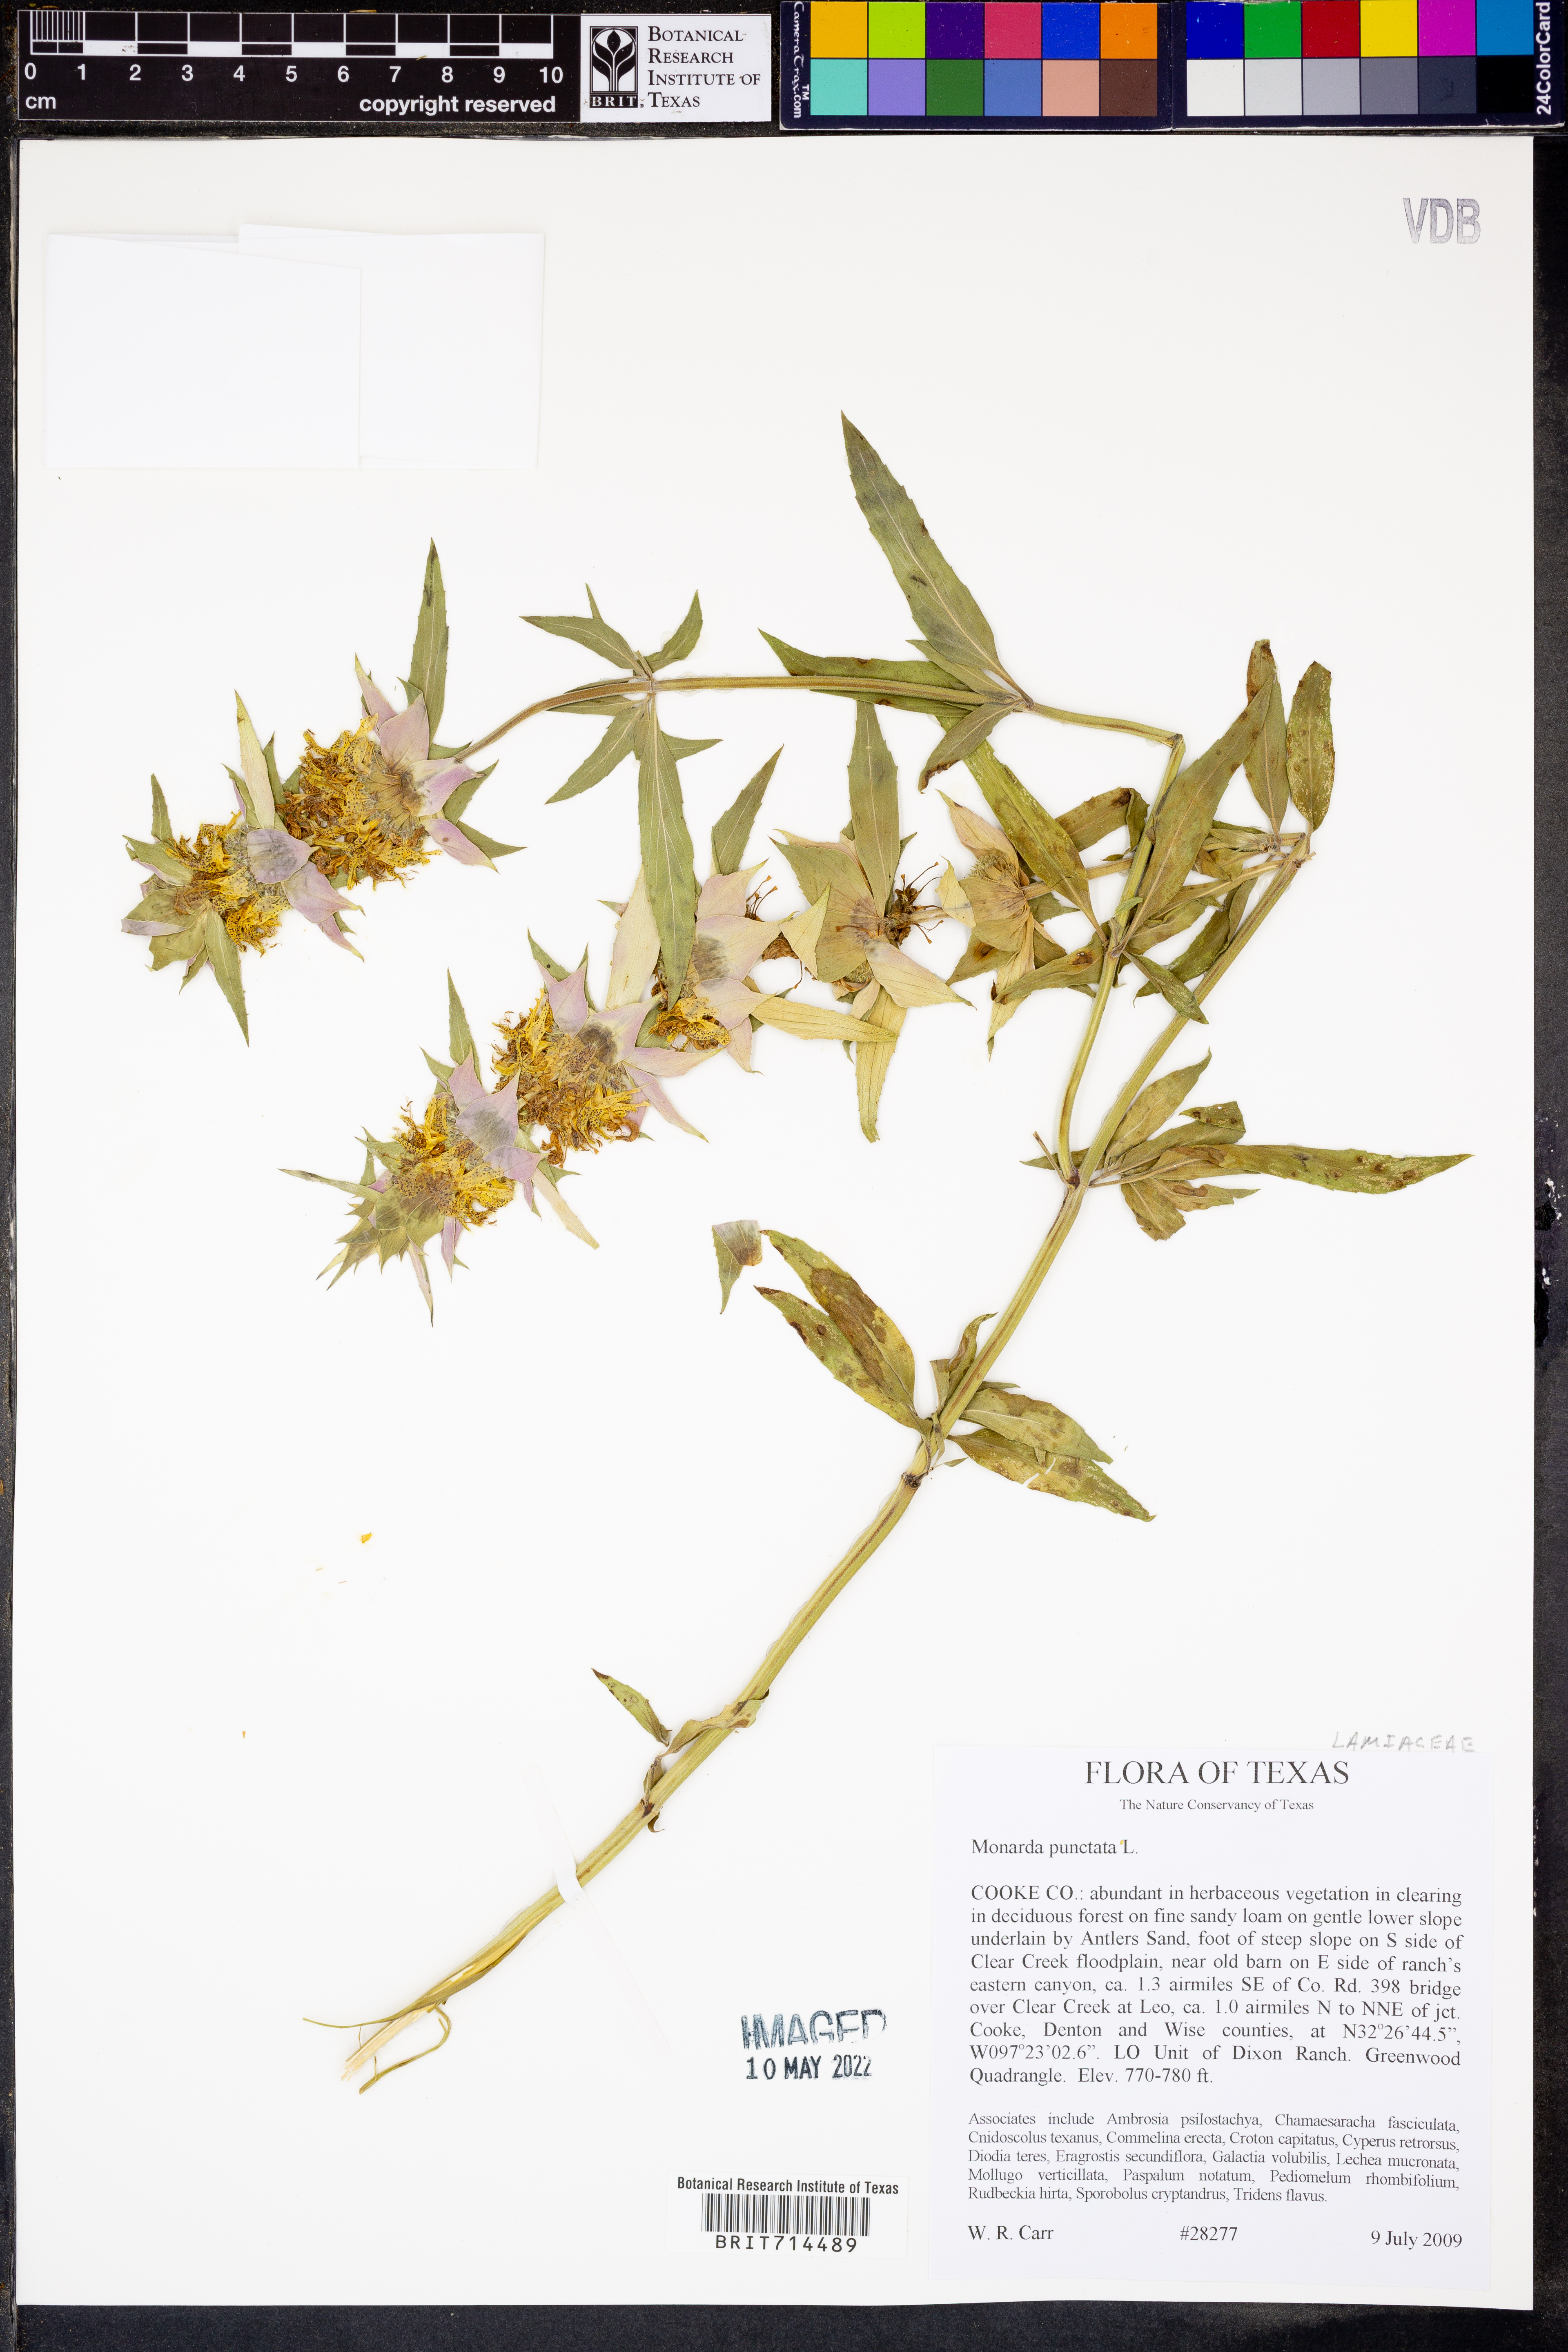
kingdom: Plantae
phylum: Tracheophyta
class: Magnoliopsida
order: Lamiales
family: Lamiaceae
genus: Monarda
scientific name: Monarda punctata
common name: Dotted monarda
